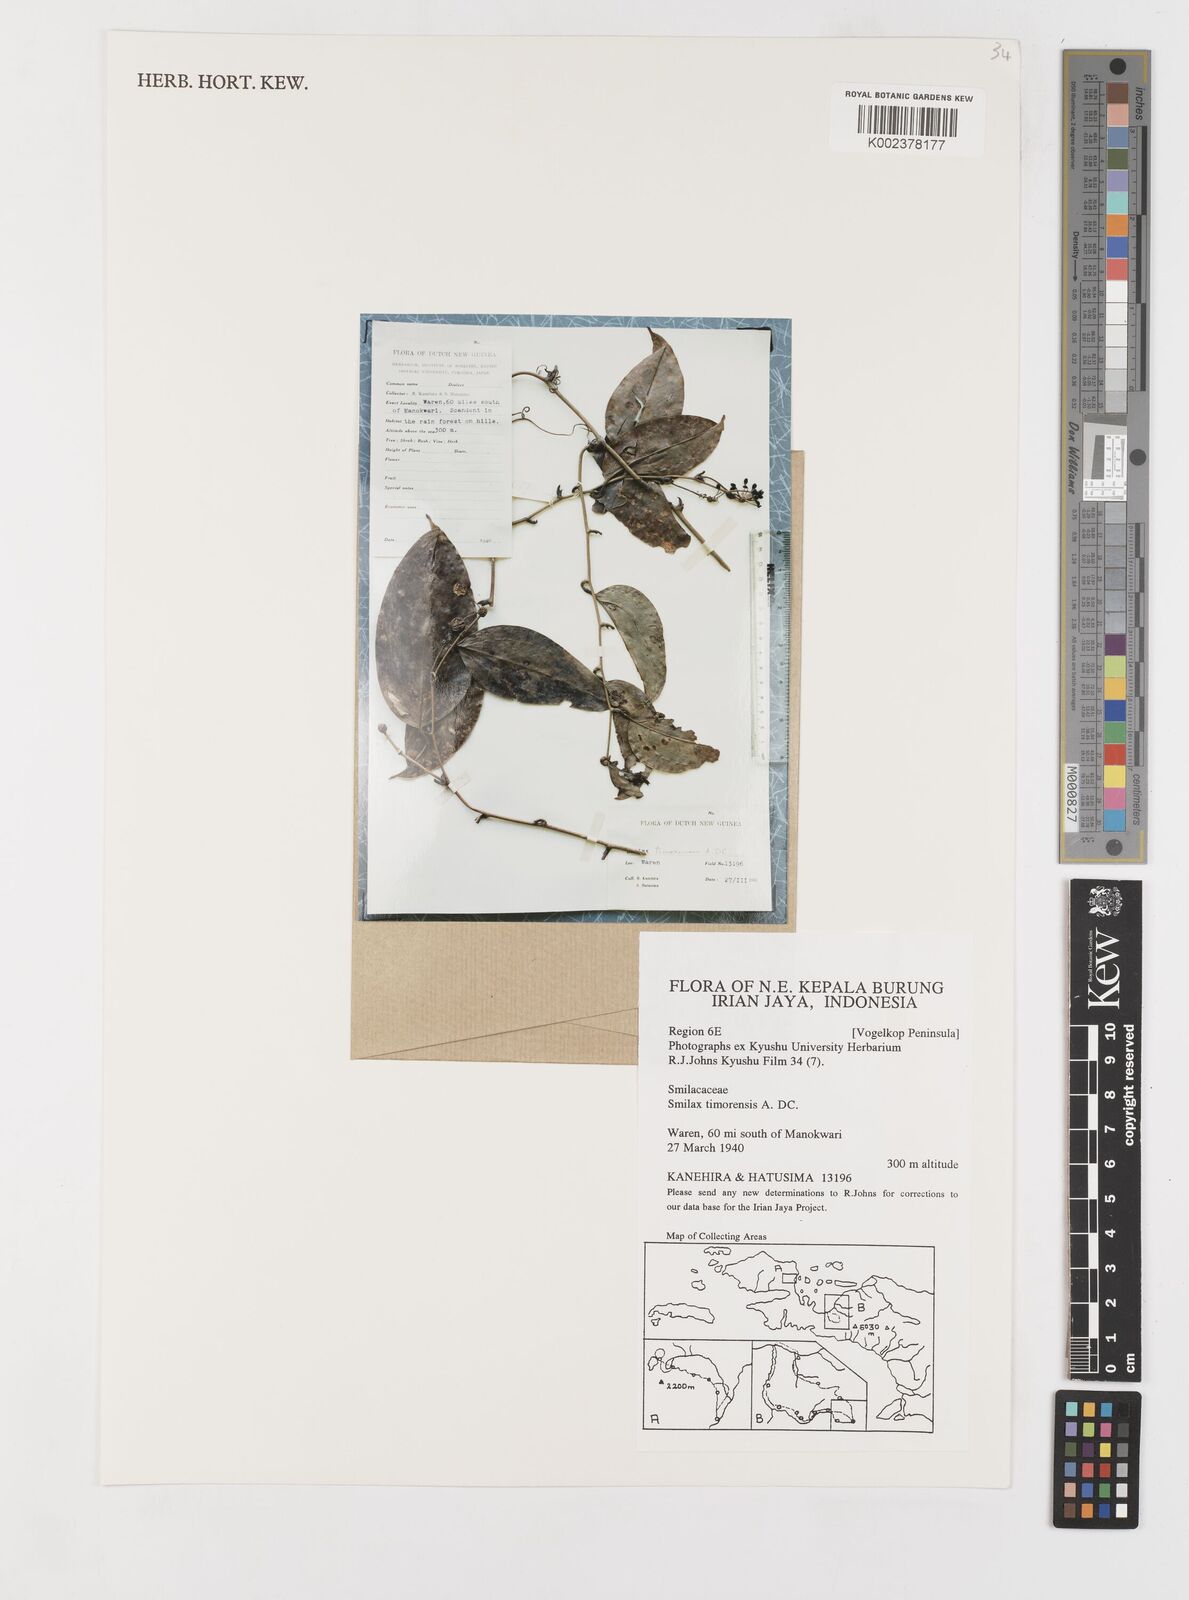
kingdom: Plantae
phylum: Tracheophyta
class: Liliopsida
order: Liliales
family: Smilacaceae
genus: Smilax
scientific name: Smilax timorensis
